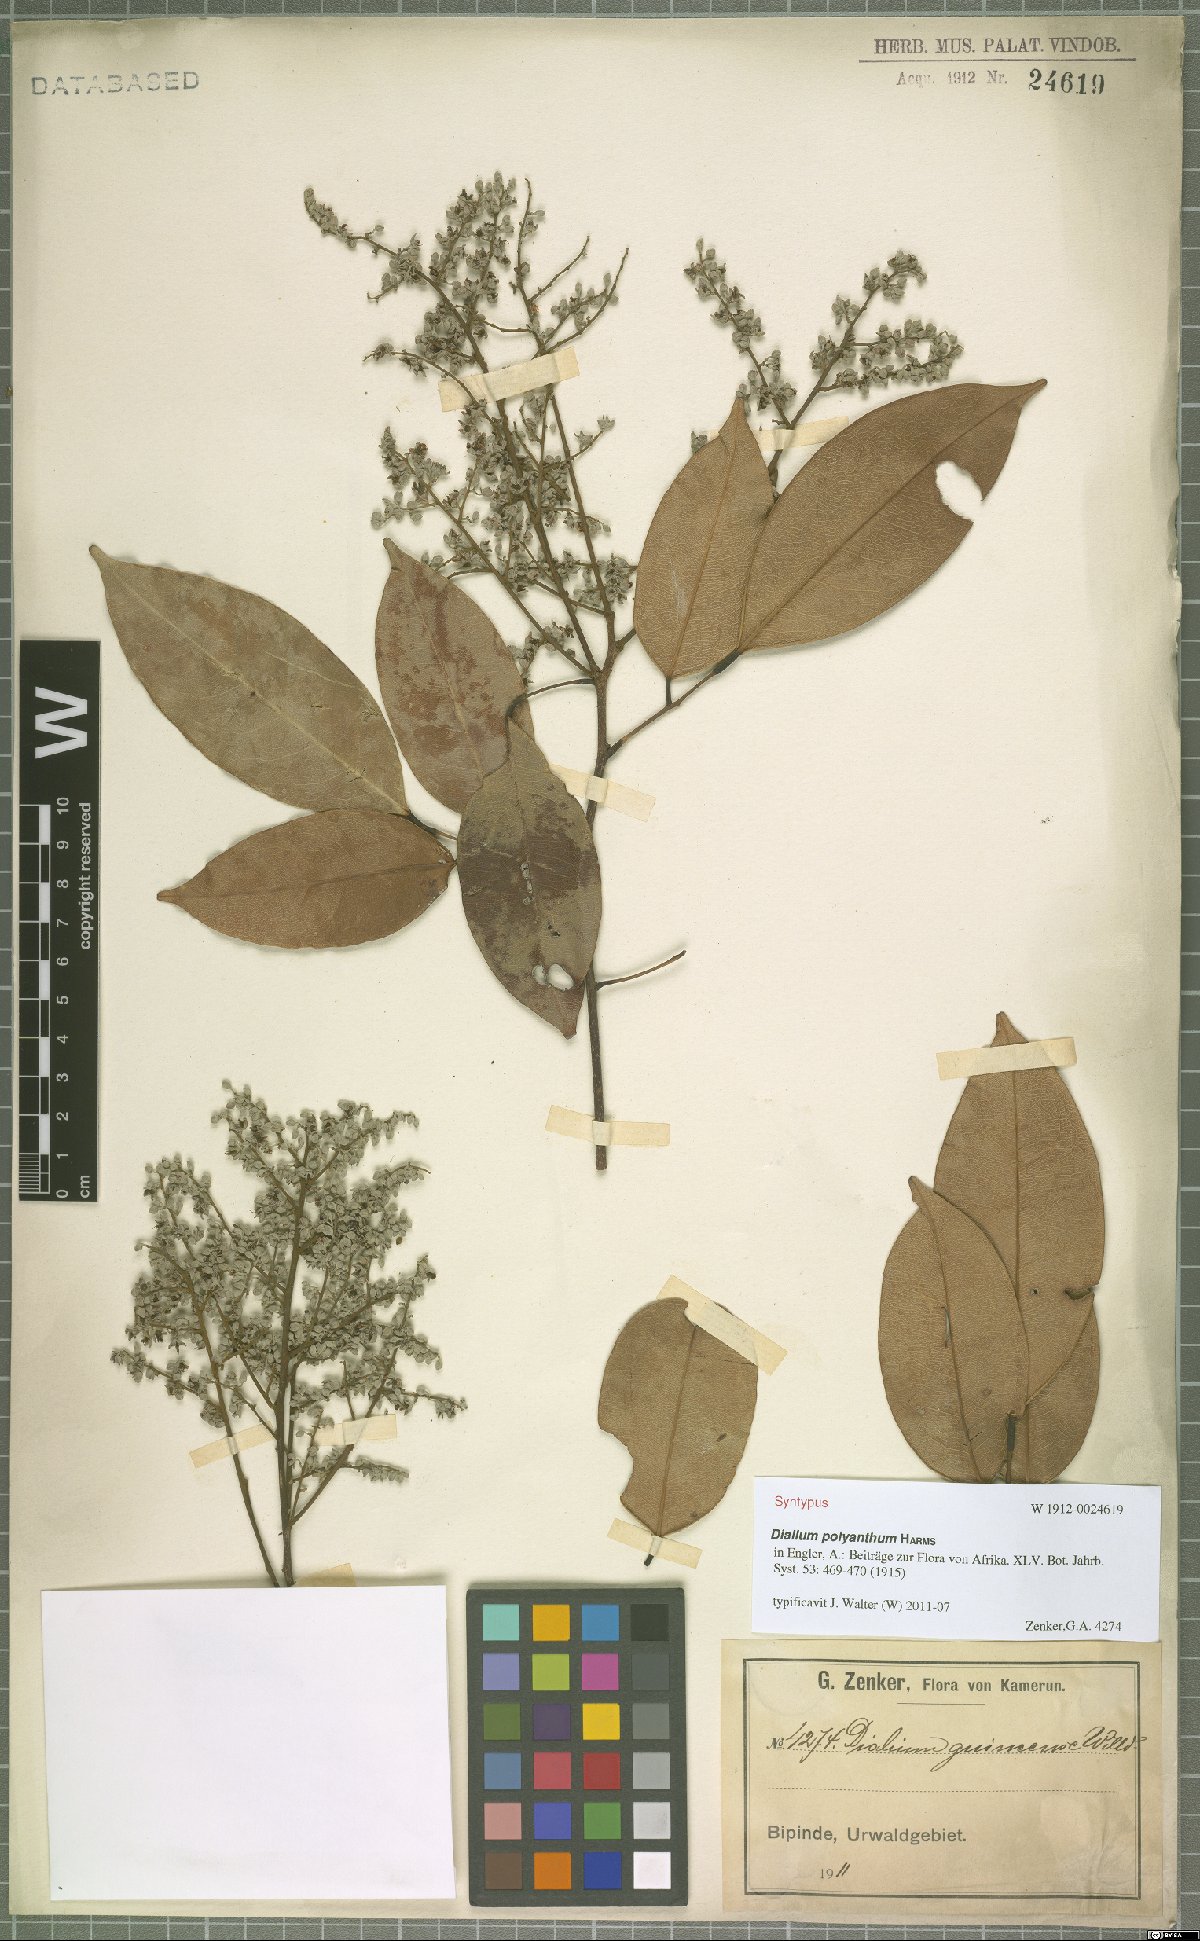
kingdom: Plantae
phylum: Tracheophyta
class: Magnoliopsida
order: Fabales
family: Fabaceae
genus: Dialium
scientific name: Dialium polyanthum
